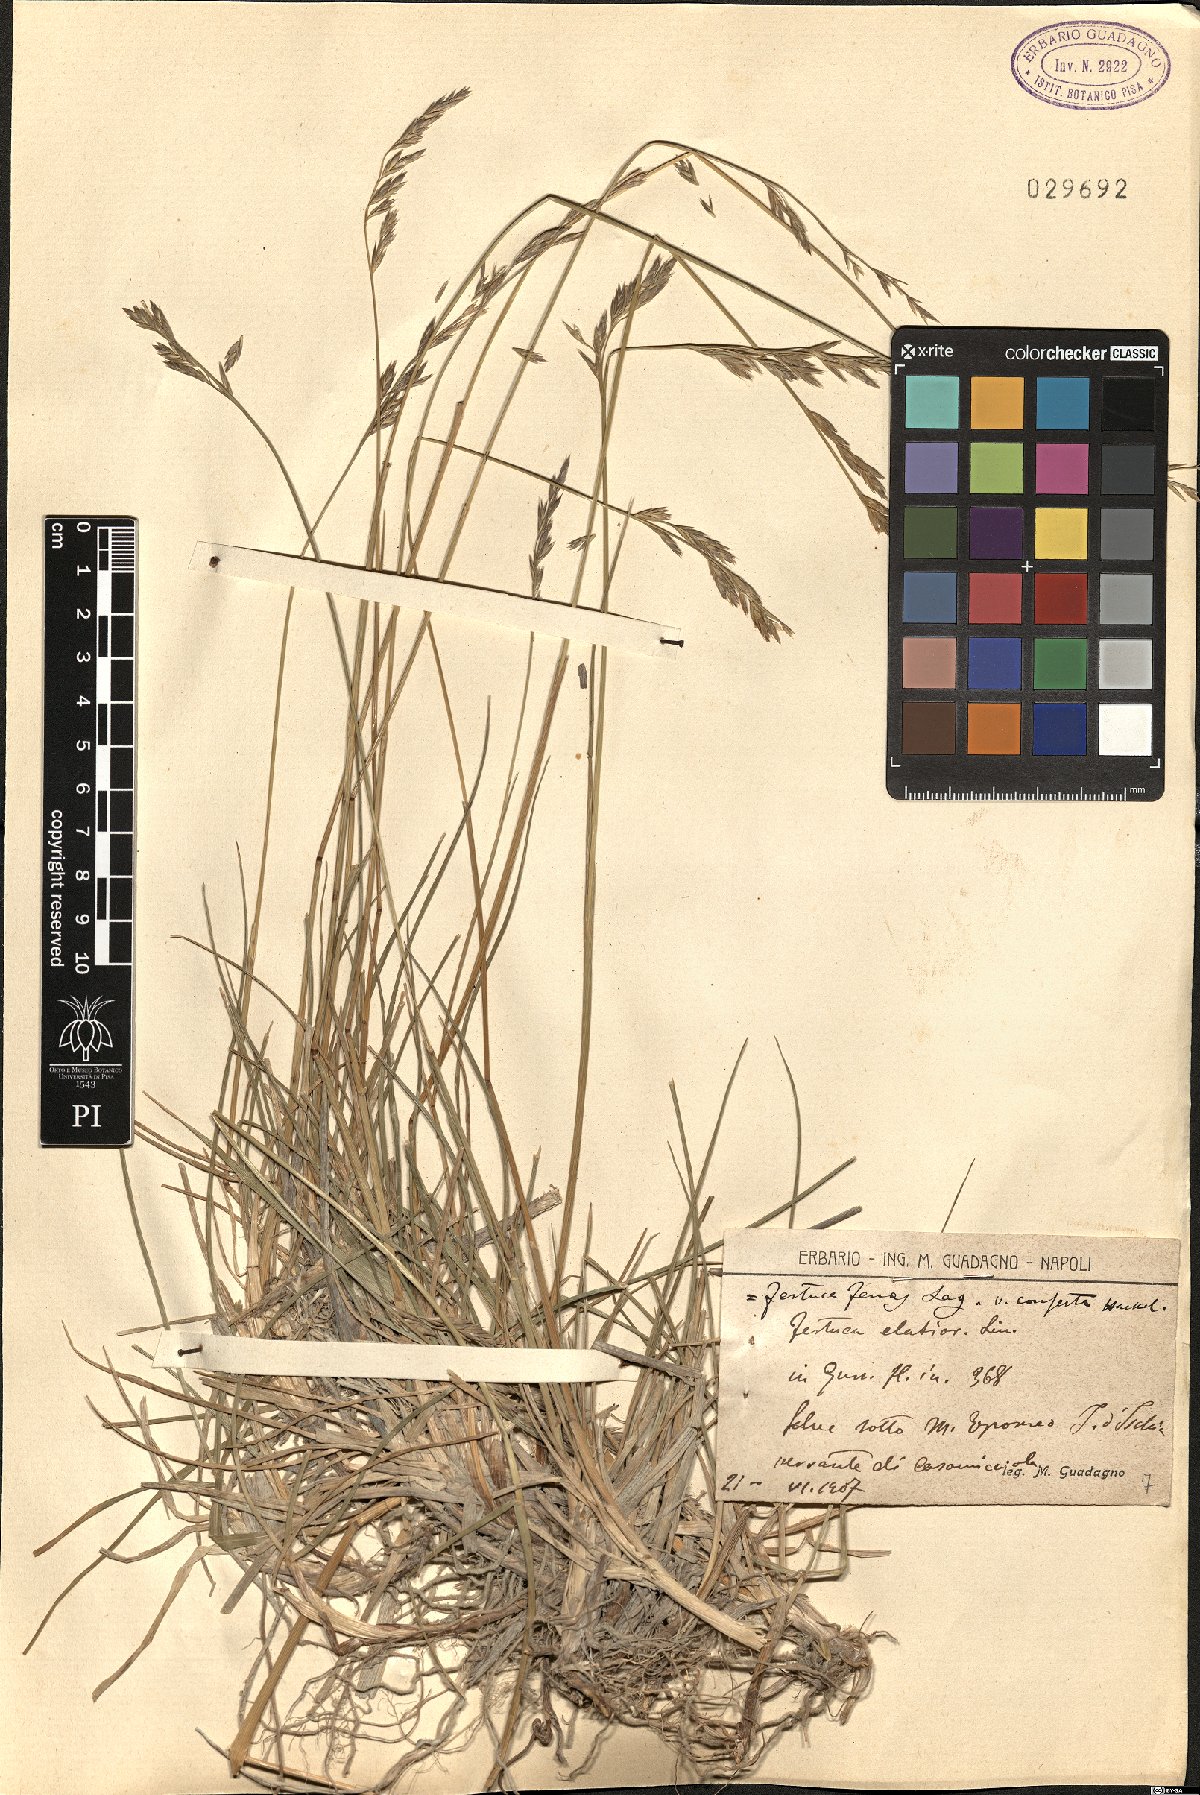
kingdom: Plantae
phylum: Tracheophyta
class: Liliopsida
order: Poales
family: Poaceae
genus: Lolium
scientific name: Lolium arundinaceum
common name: Reed fescue
